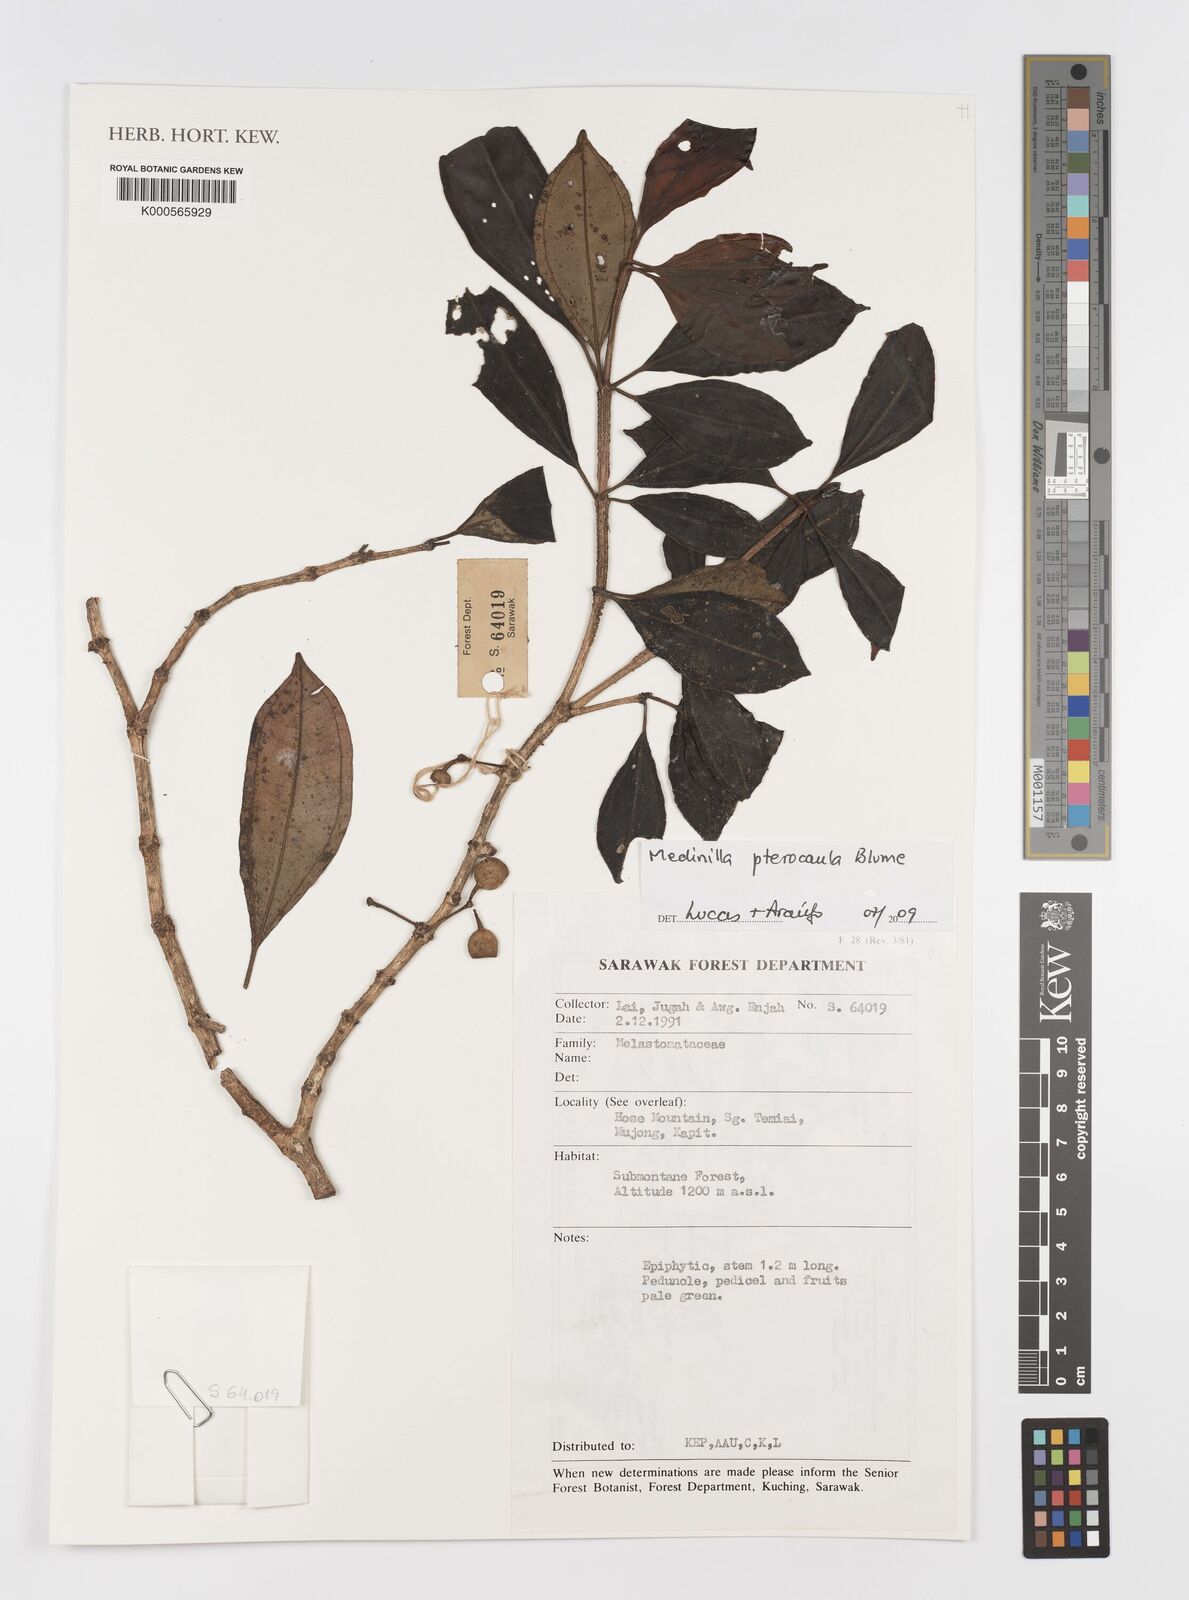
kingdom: Plantae
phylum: Tracheophyta
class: Magnoliopsida
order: Myrtales
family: Melastomataceae
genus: Medinilla
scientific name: Medinilla pterocaula
